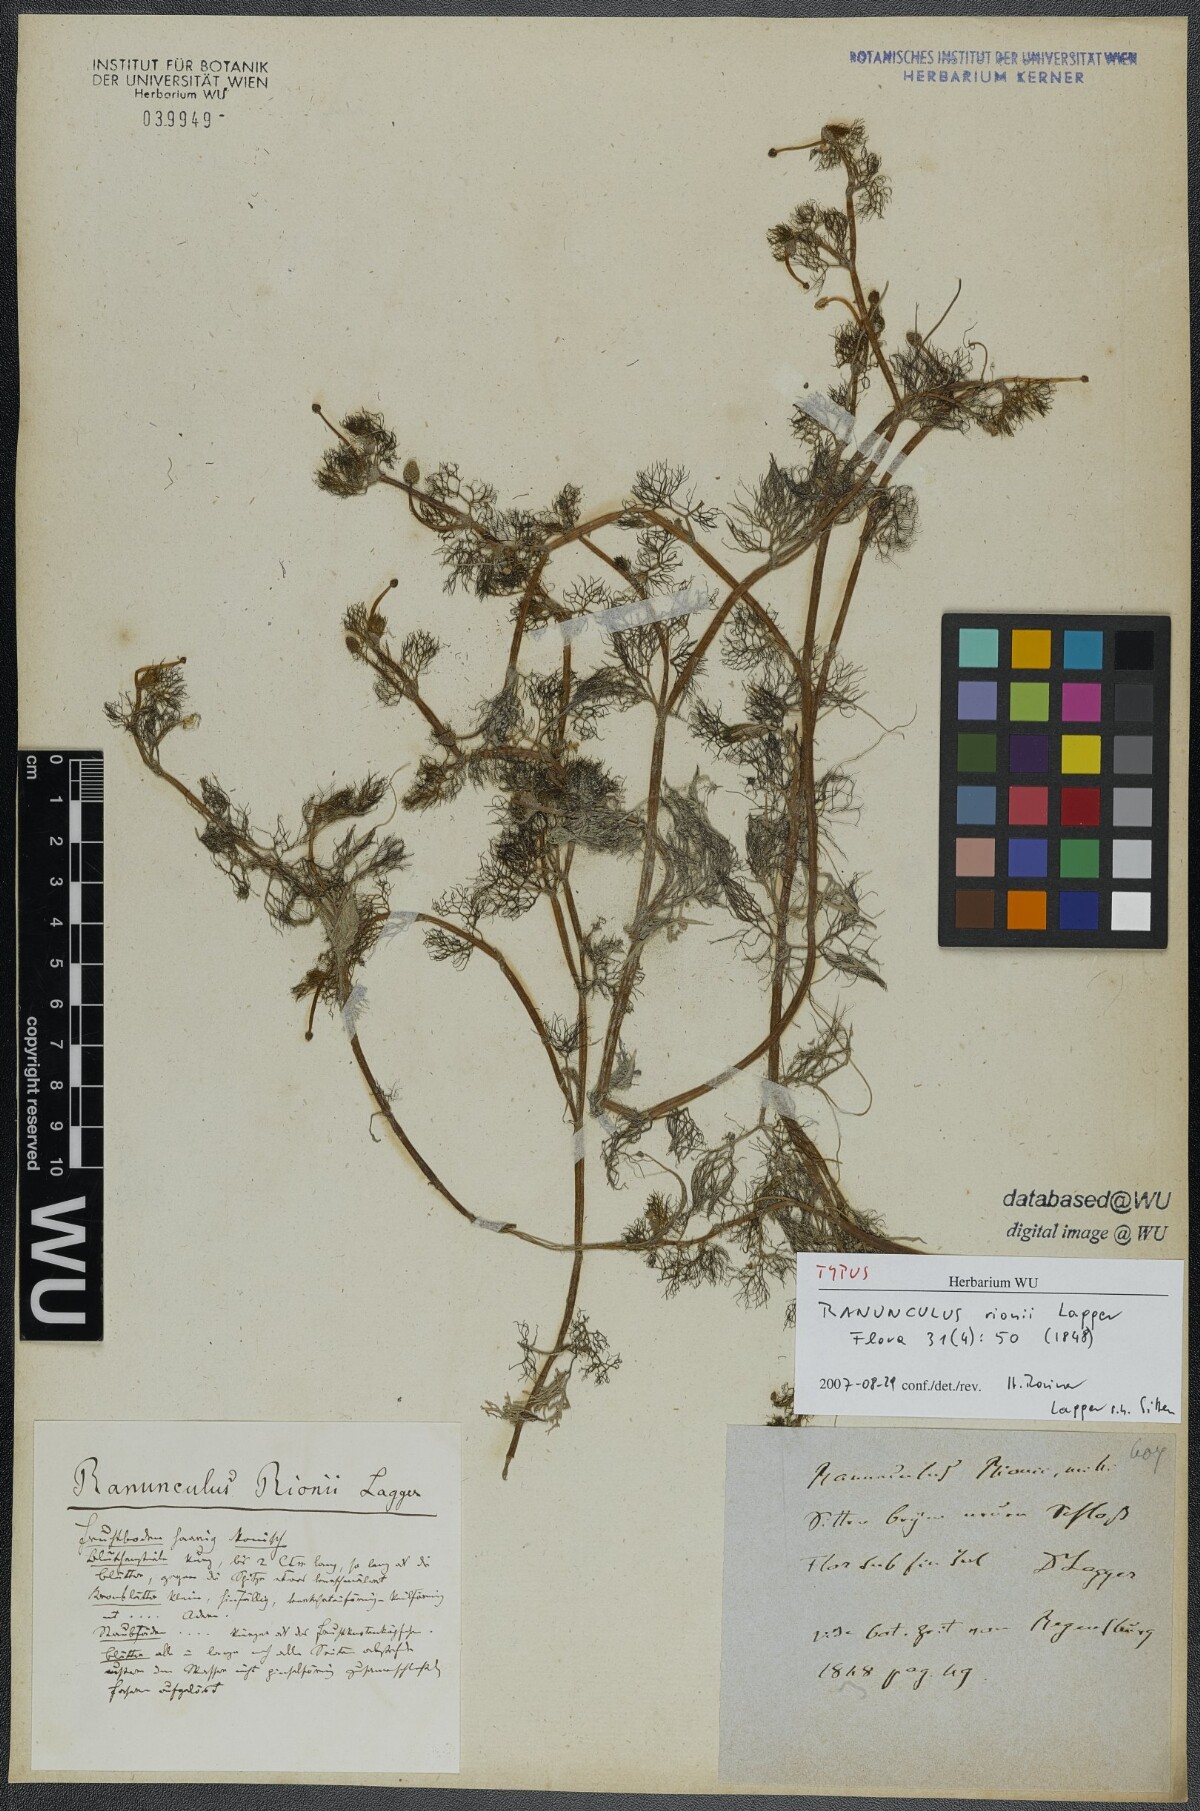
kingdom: Plantae
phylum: Tracheophyta
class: Magnoliopsida
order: Ranunculales
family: Ranunculaceae
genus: Ranunculus
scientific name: Ranunculus rionii
